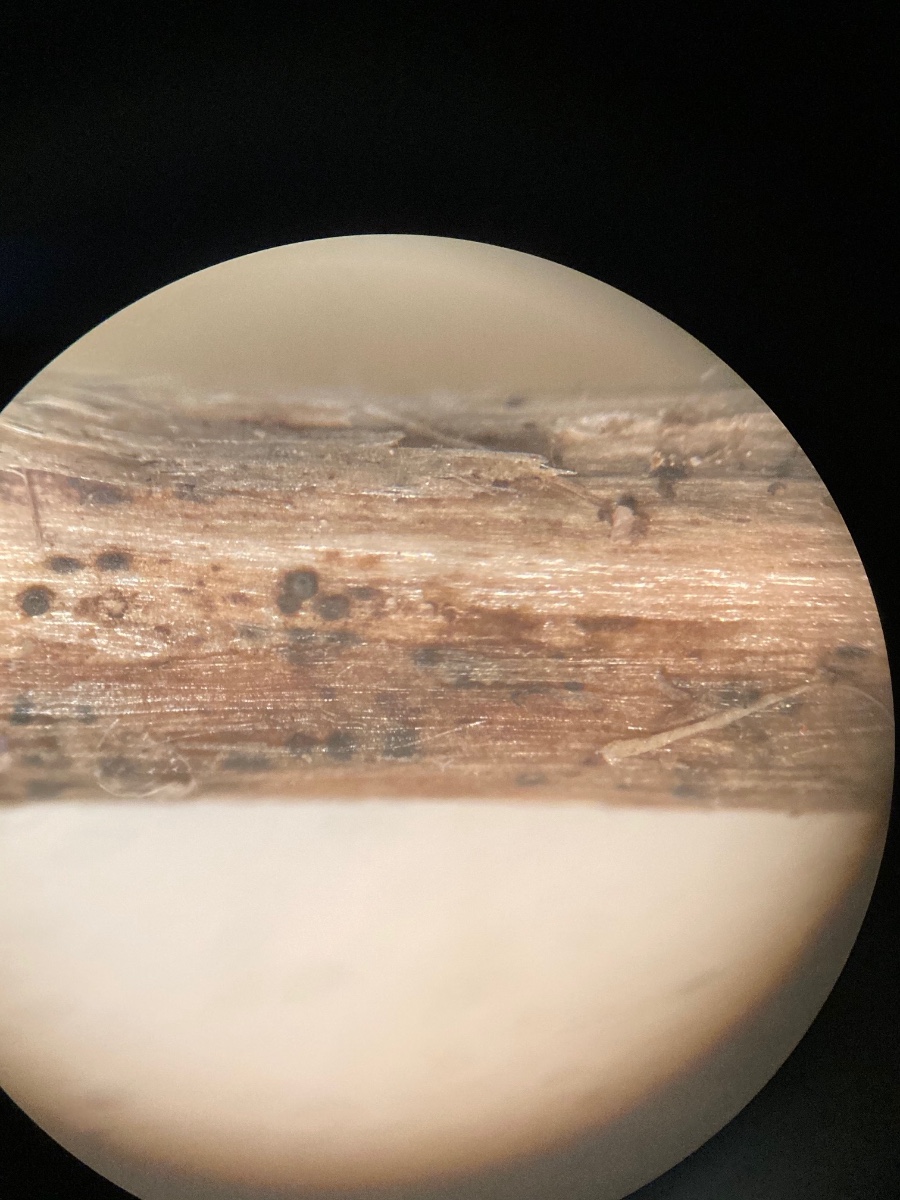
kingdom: Fungi
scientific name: Fungi
